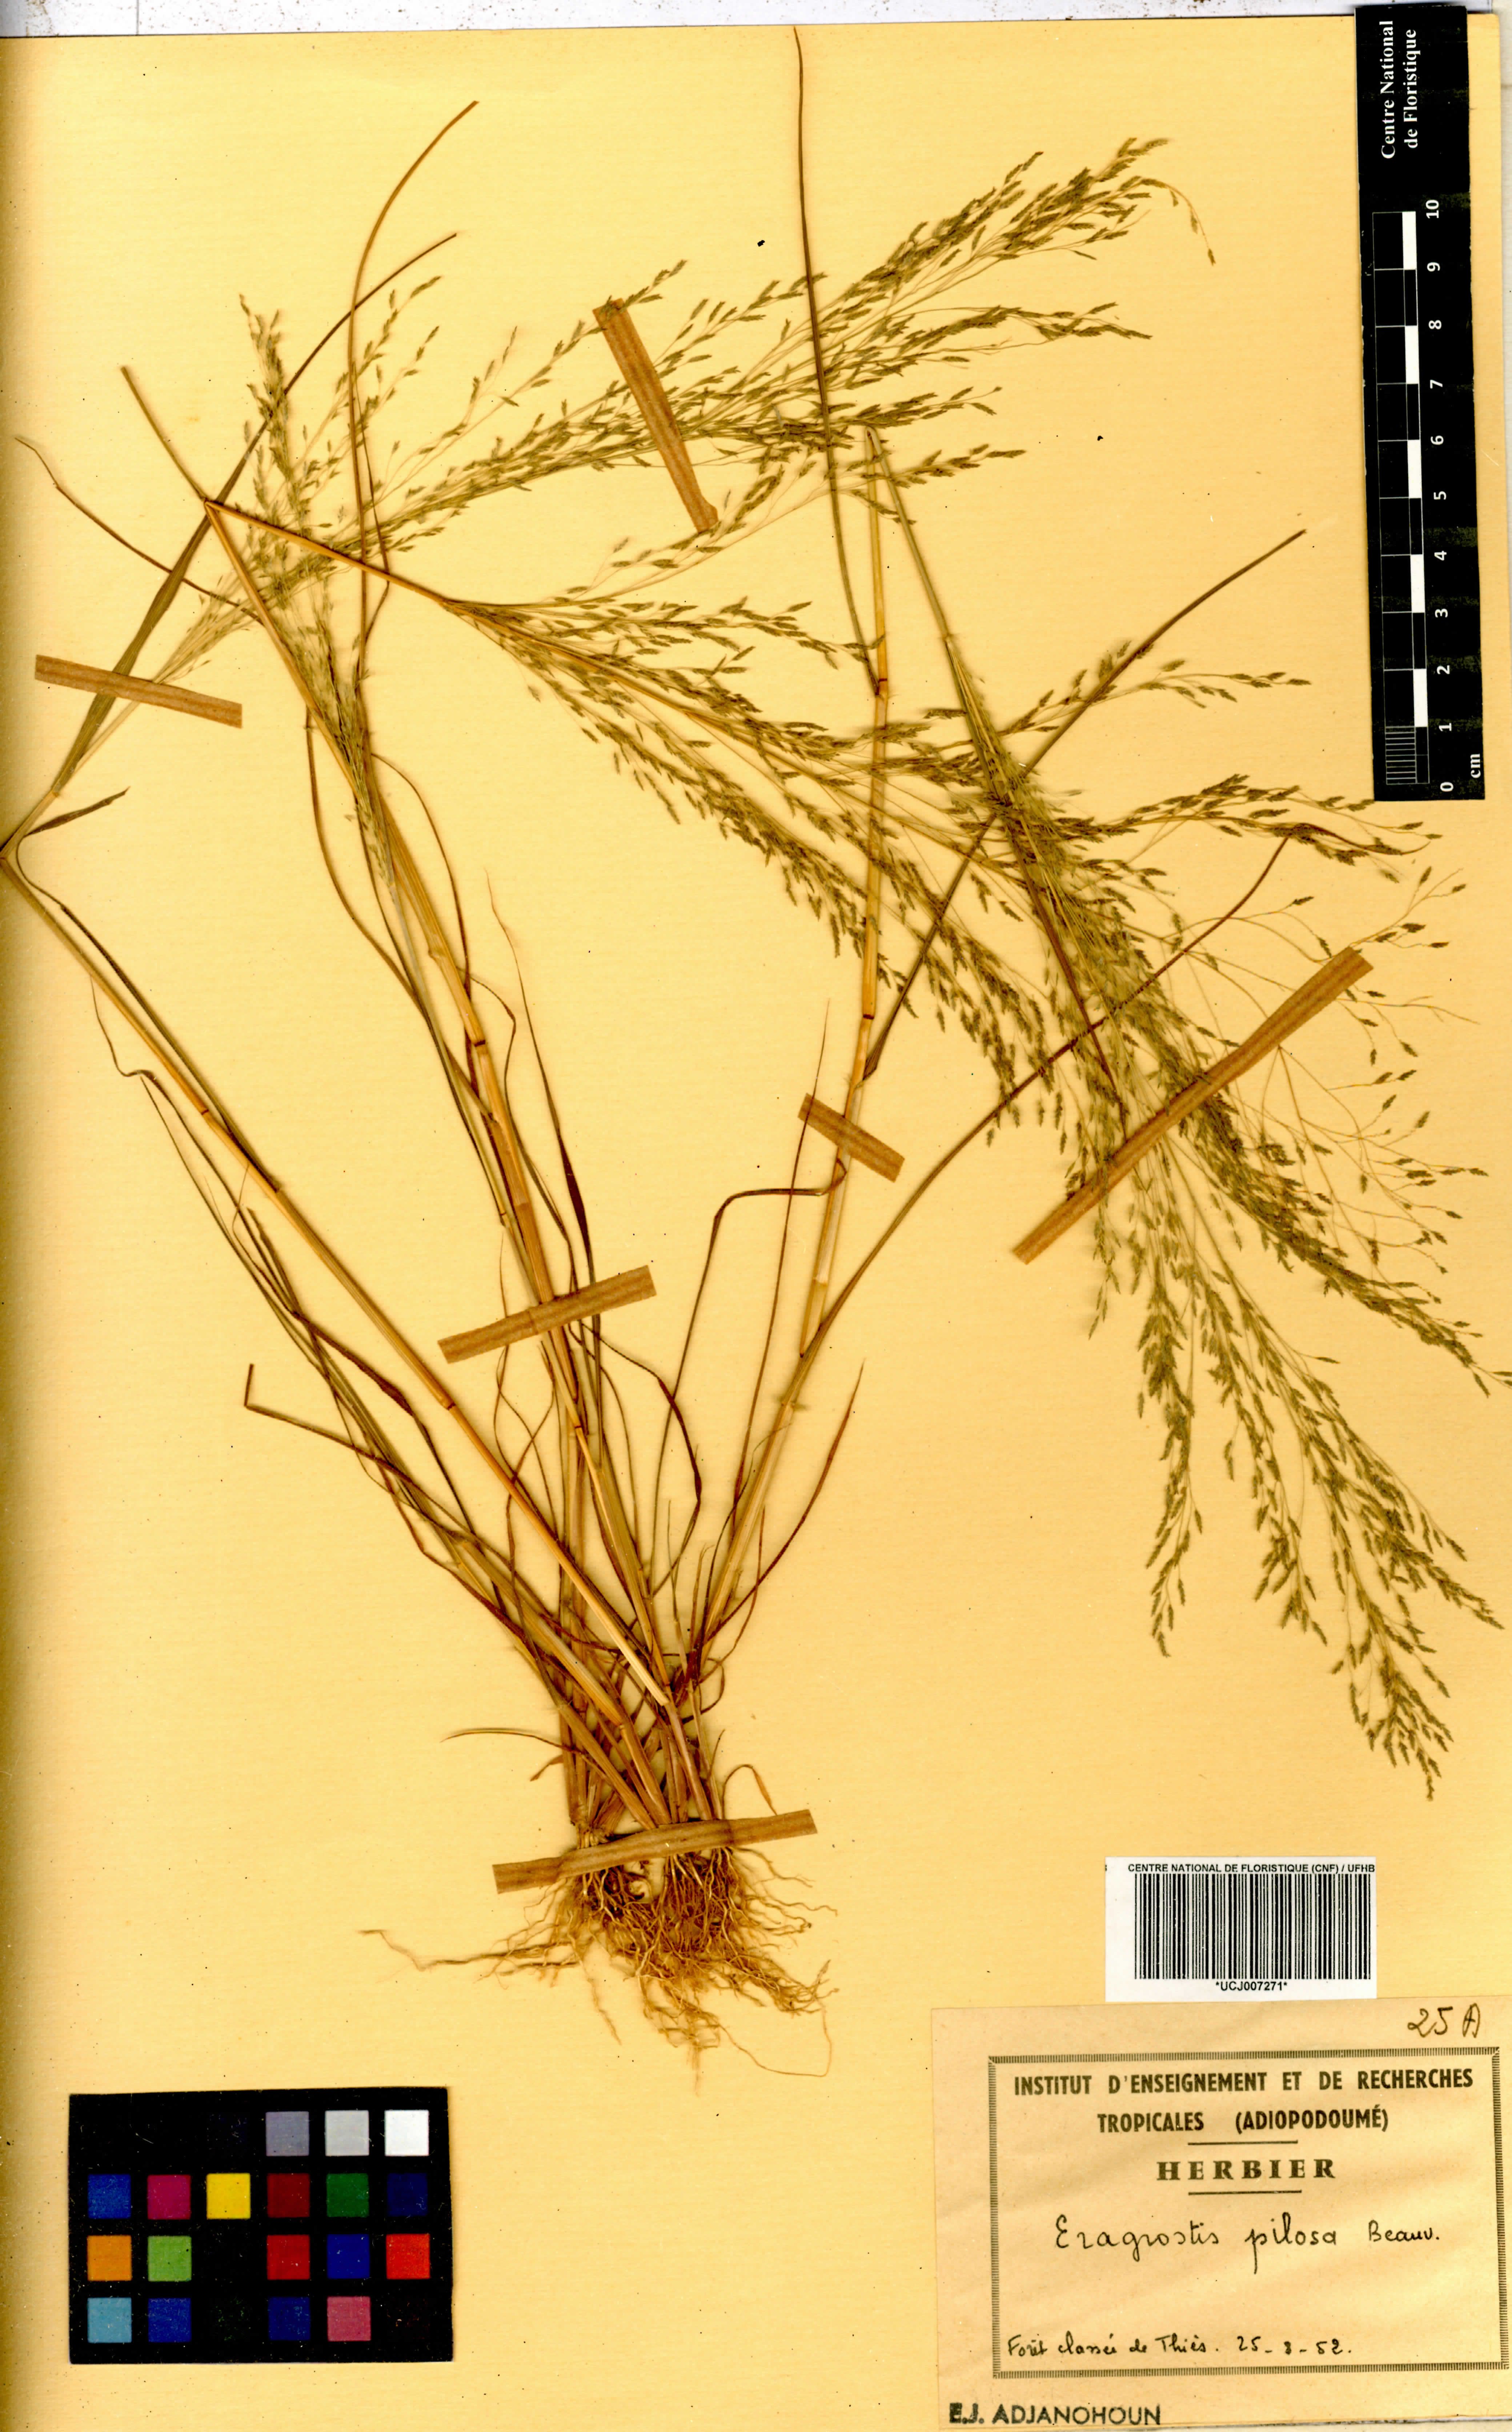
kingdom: Plantae
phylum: Tracheophyta
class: Liliopsida
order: Poales
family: Poaceae
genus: Eragrostis
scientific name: Eragrostis pilosa
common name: Indian lovegrass
